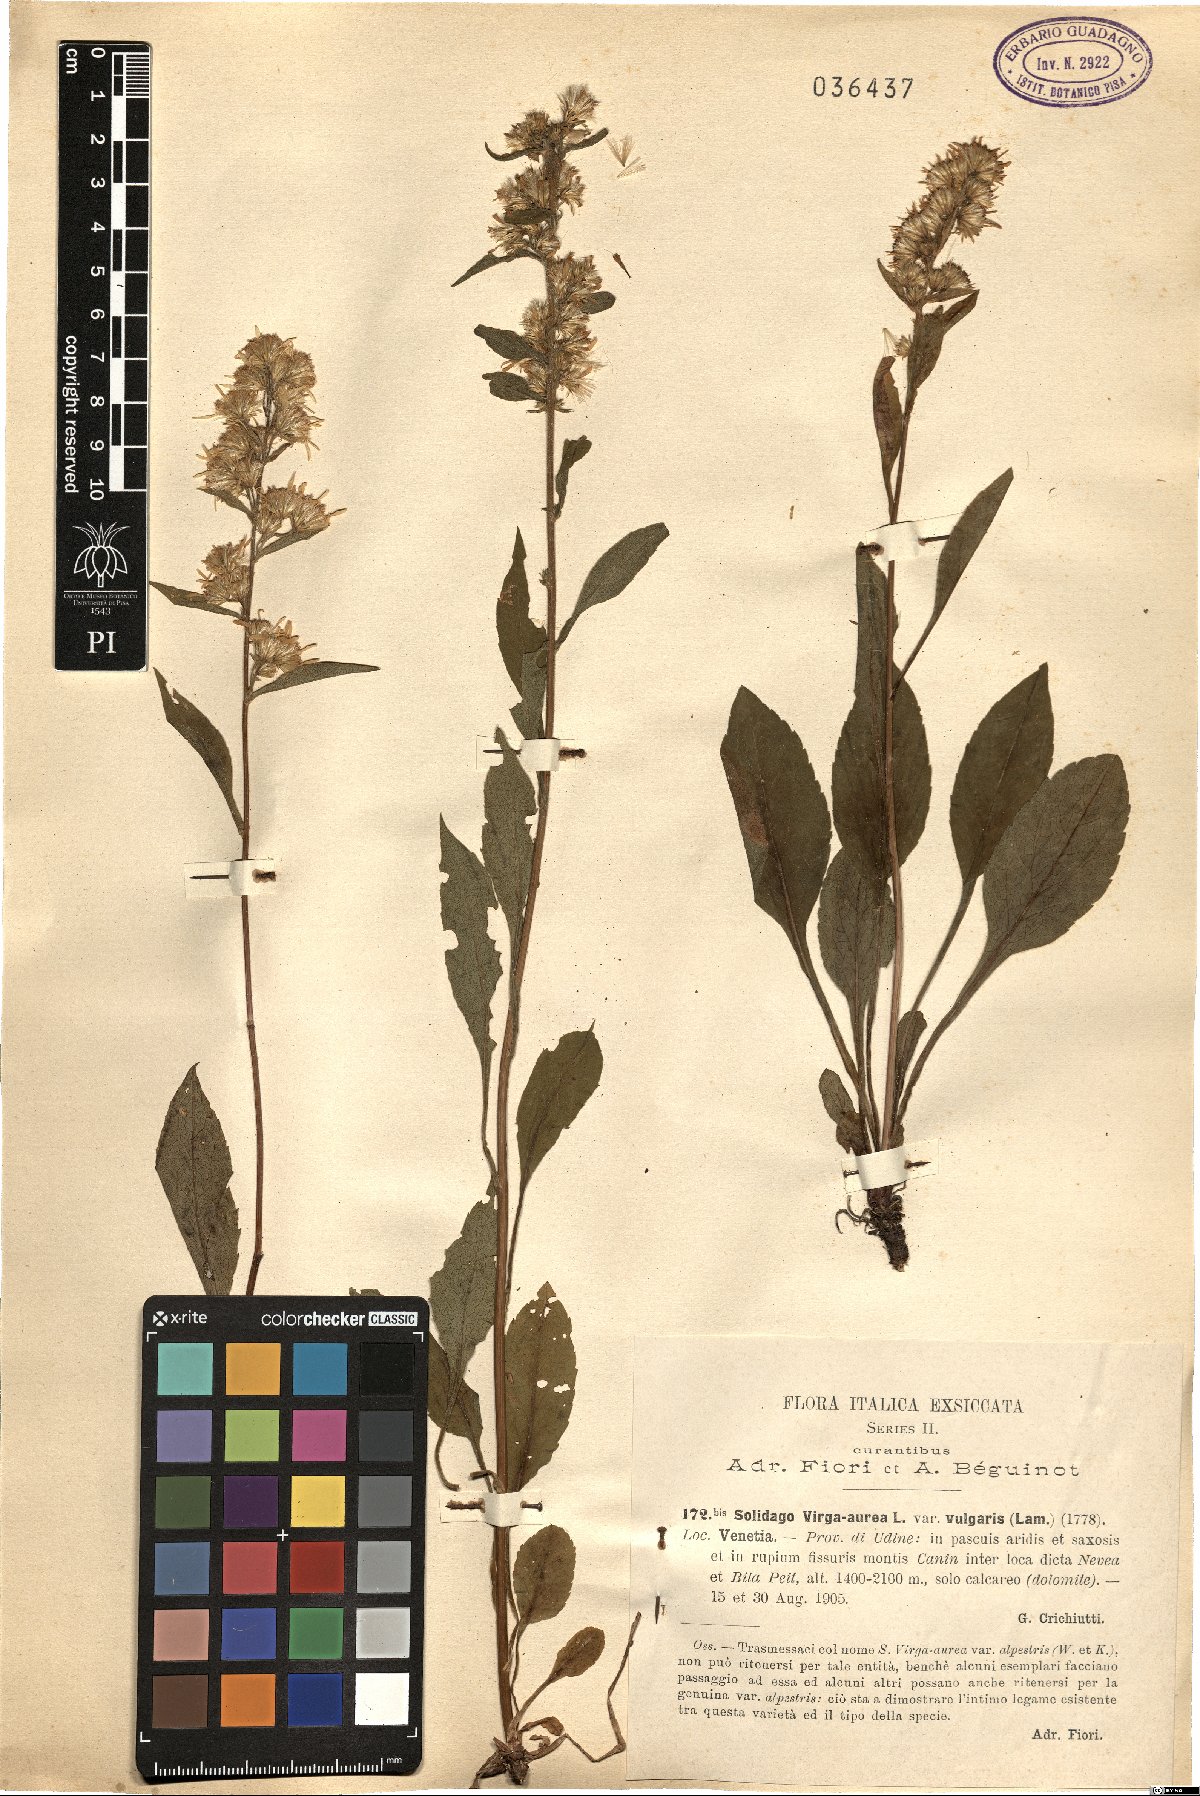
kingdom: Plantae
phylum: Tracheophyta
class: Magnoliopsida
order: Asterales
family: Asteraceae
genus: Solidago
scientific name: Solidago virgaurea
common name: Goldenrod
